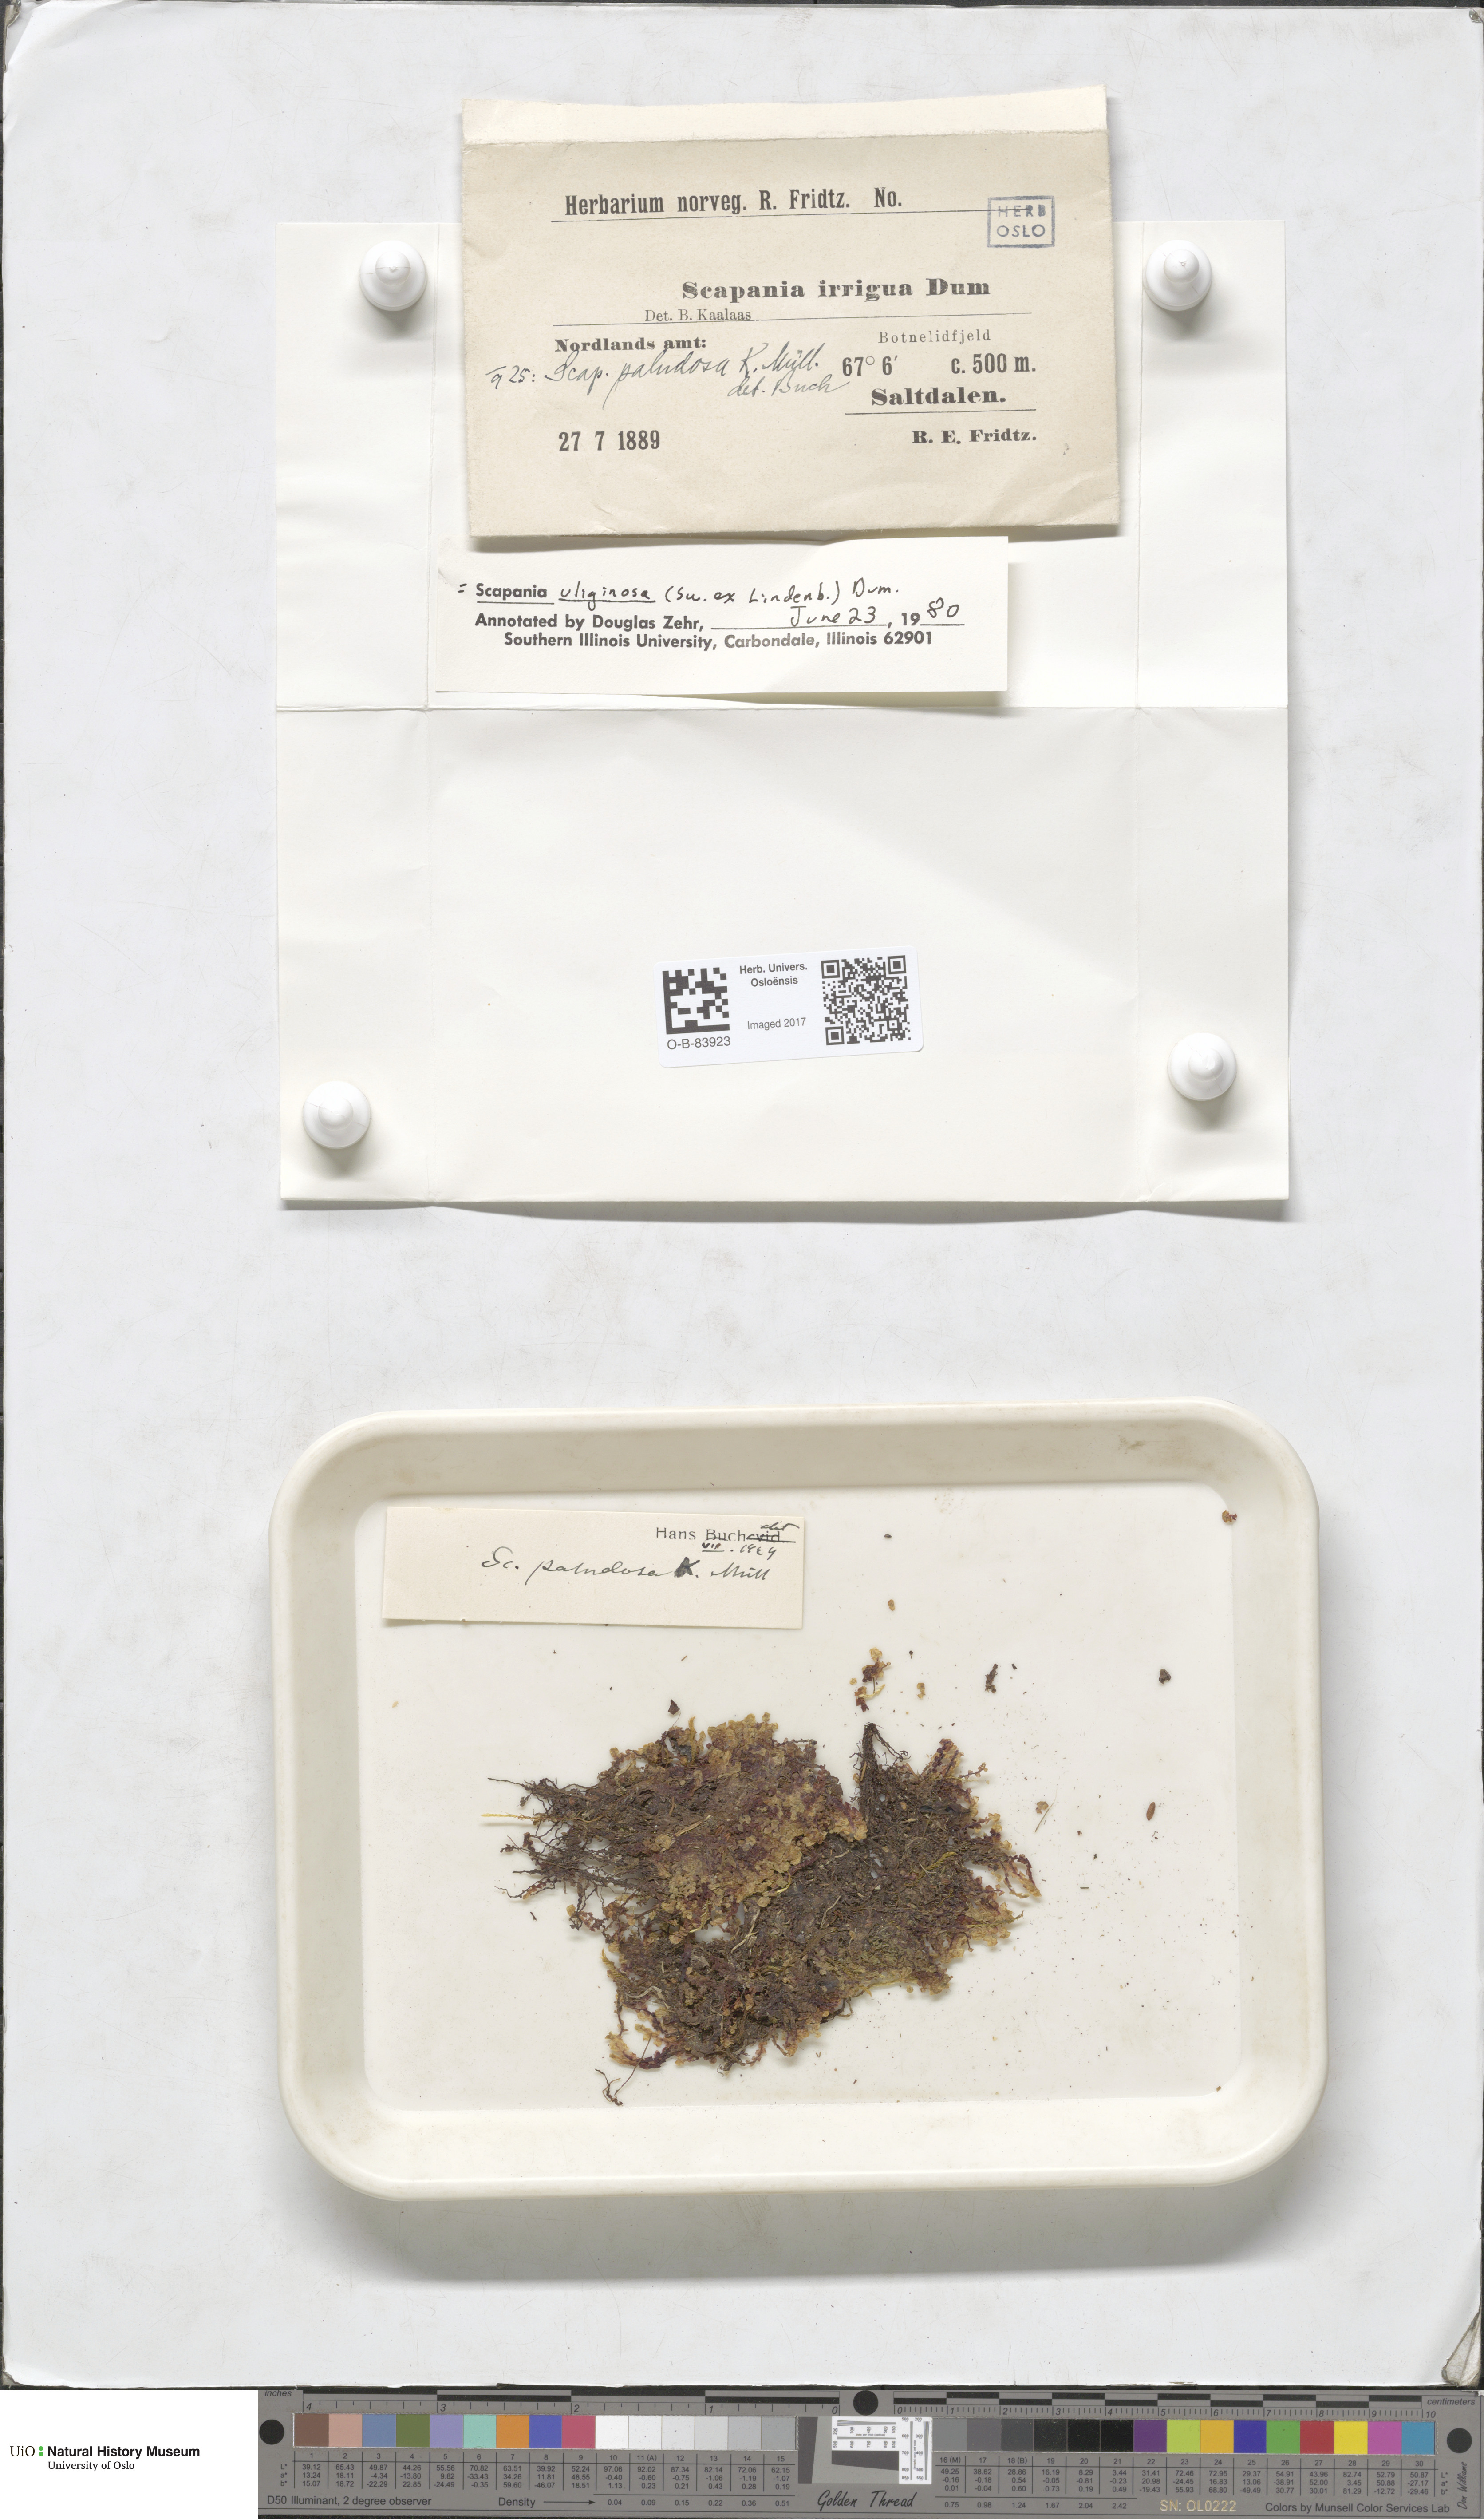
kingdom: Plantae
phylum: Marchantiophyta
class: Jungermanniopsida
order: Jungermanniales
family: Scapaniaceae
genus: Scapania
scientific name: Scapania uliginosa
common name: Marsh earwort
